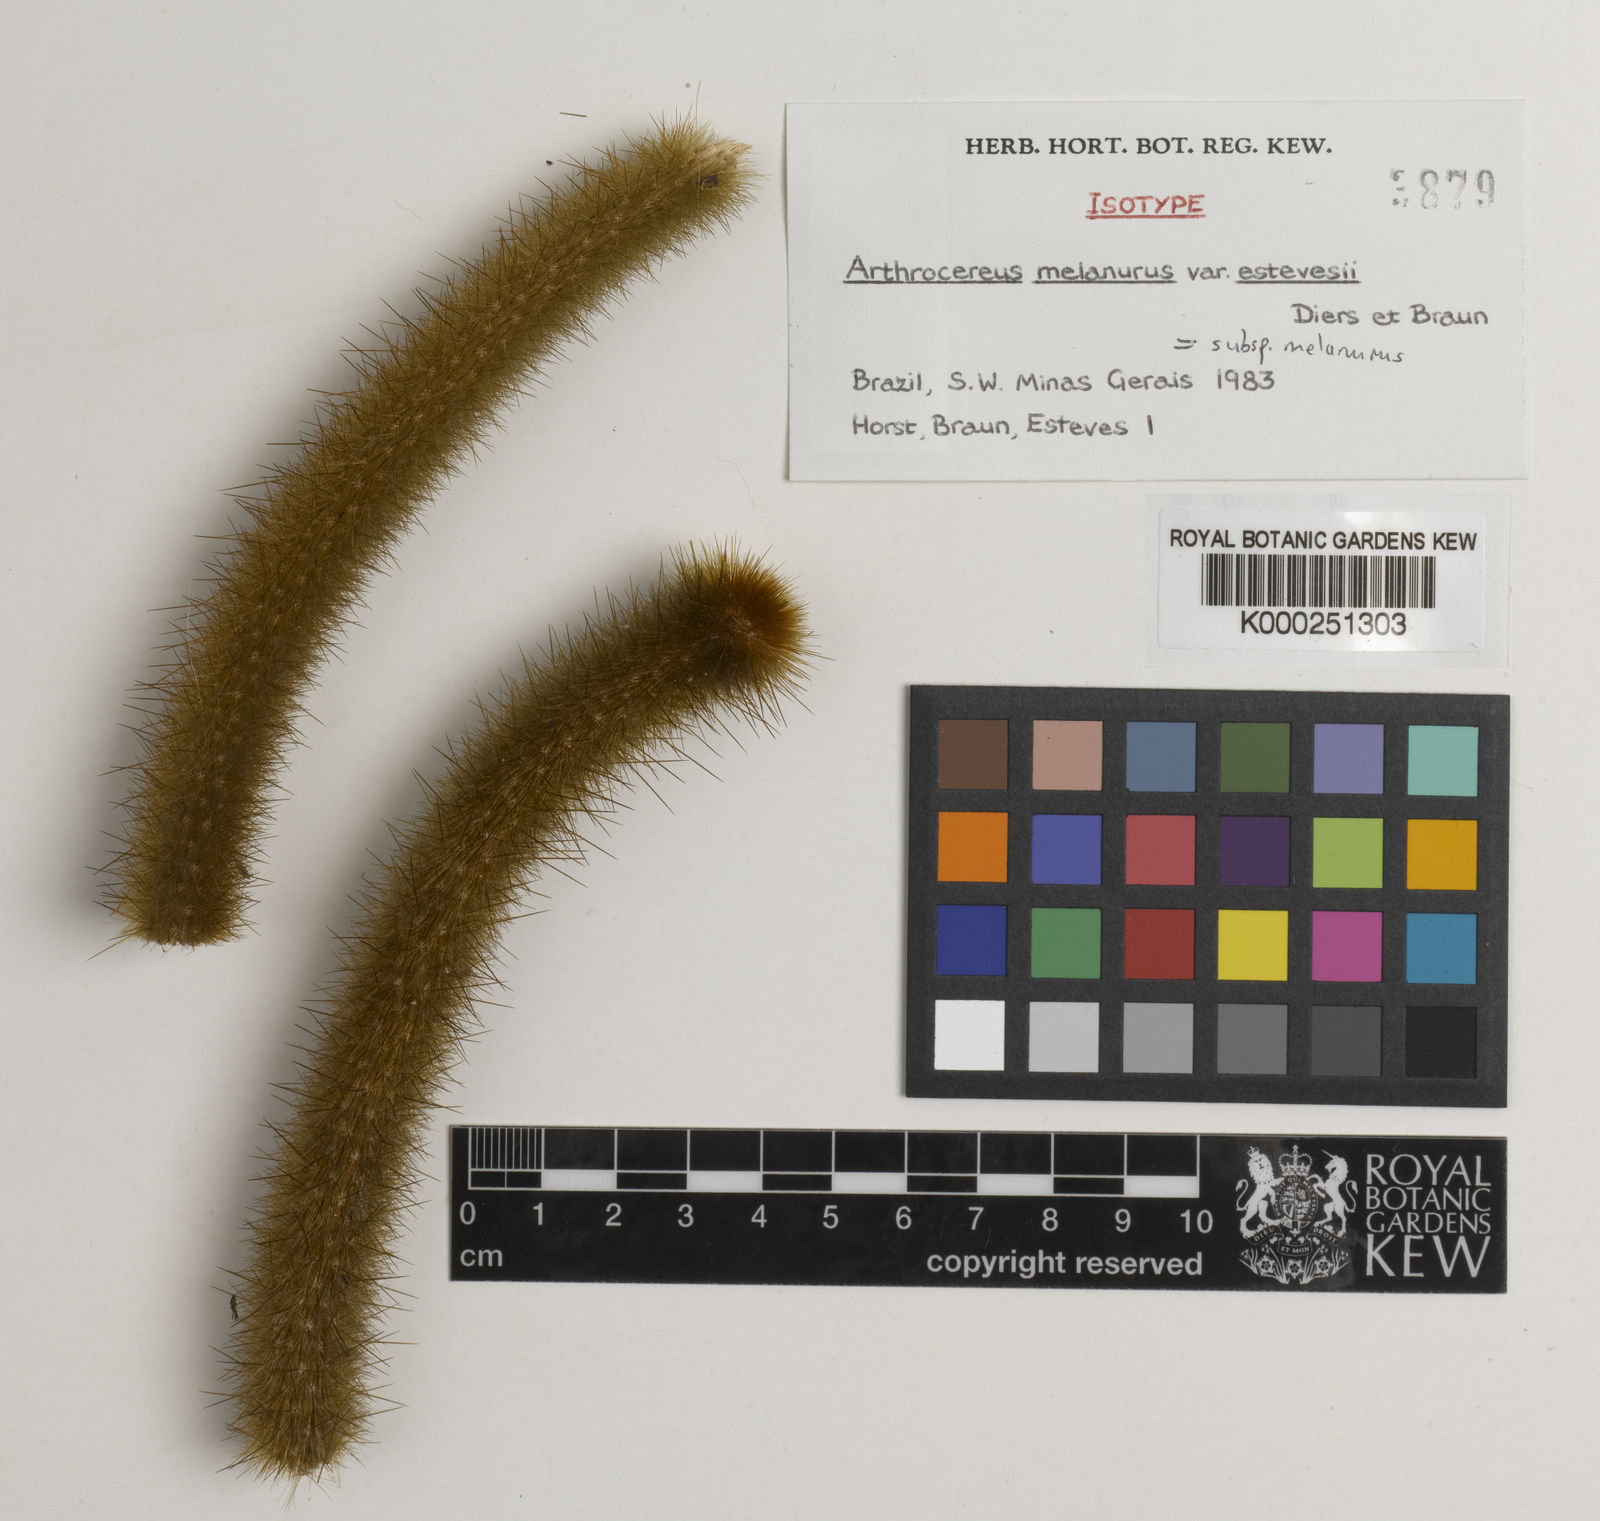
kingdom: Plantae
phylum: Tracheophyta
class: Magnoliopsida
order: Caryophyllales
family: Cactaceae
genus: Arthrocereus
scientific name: Arthrocereus
